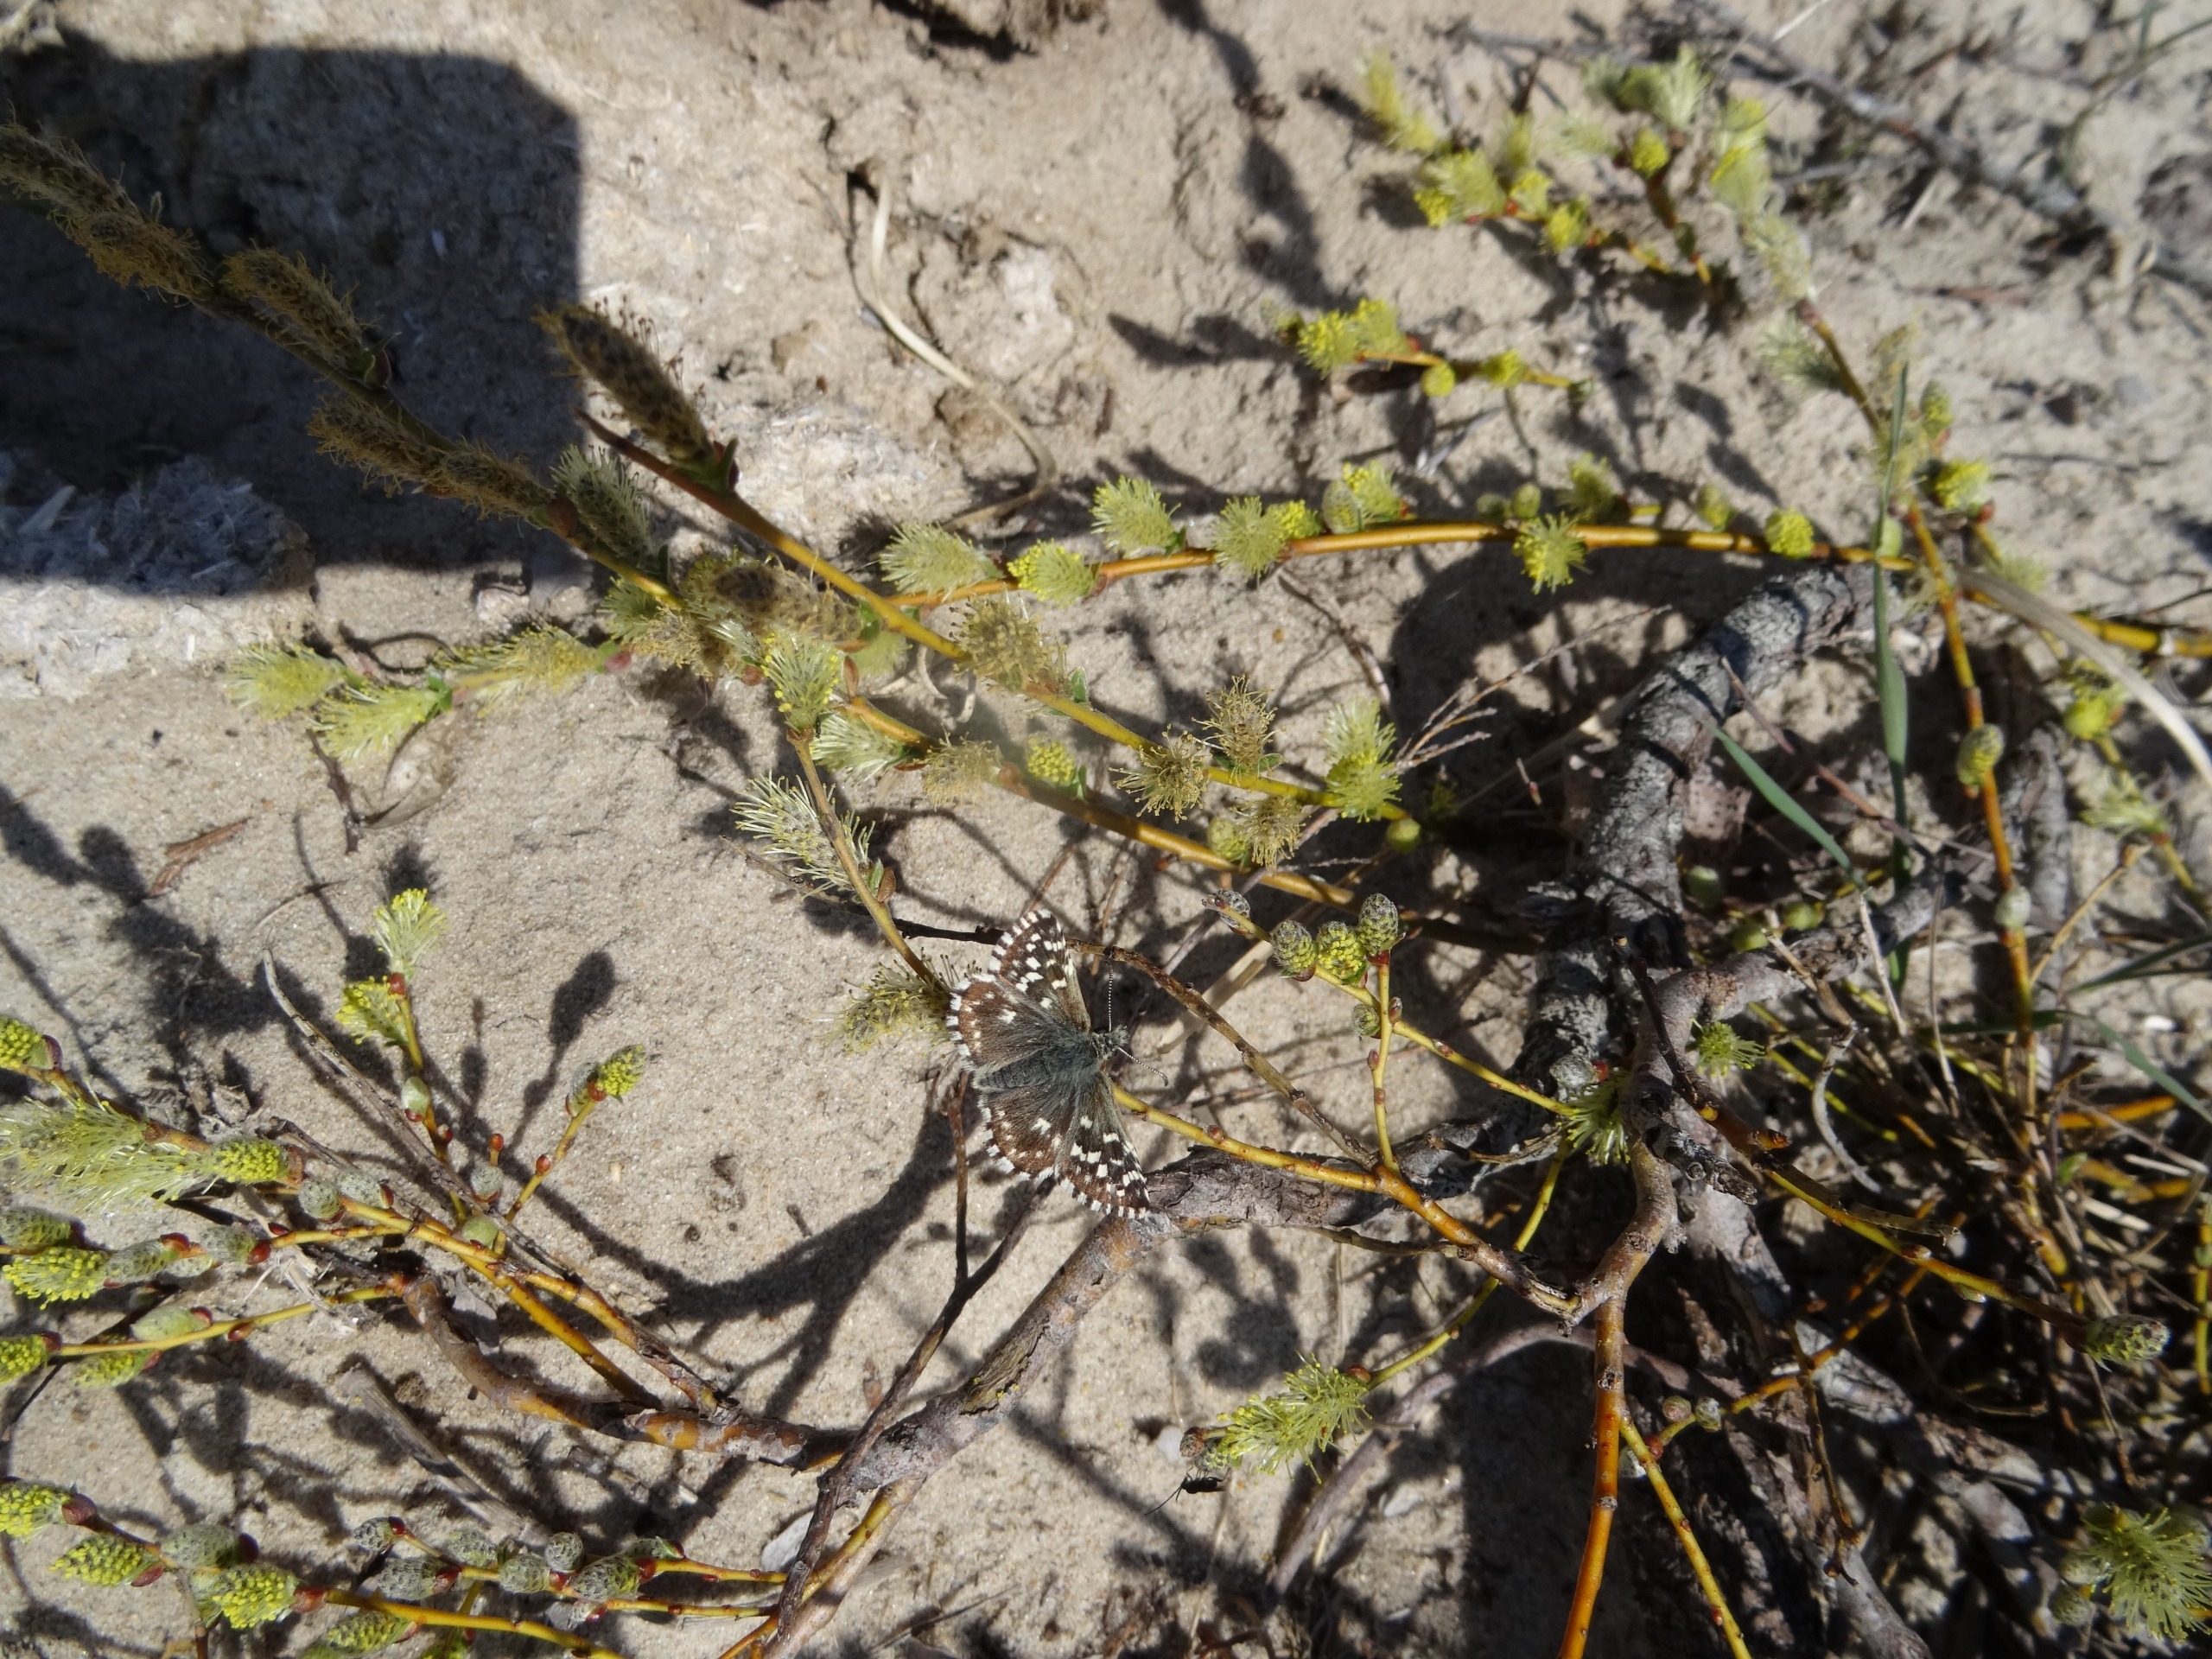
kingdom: Animalia
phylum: Arthropoda
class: Insecta
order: Lepidoptera
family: Hesperiidae
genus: Pyrgus
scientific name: Pyrgus malvae
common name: Spættet bredpande
